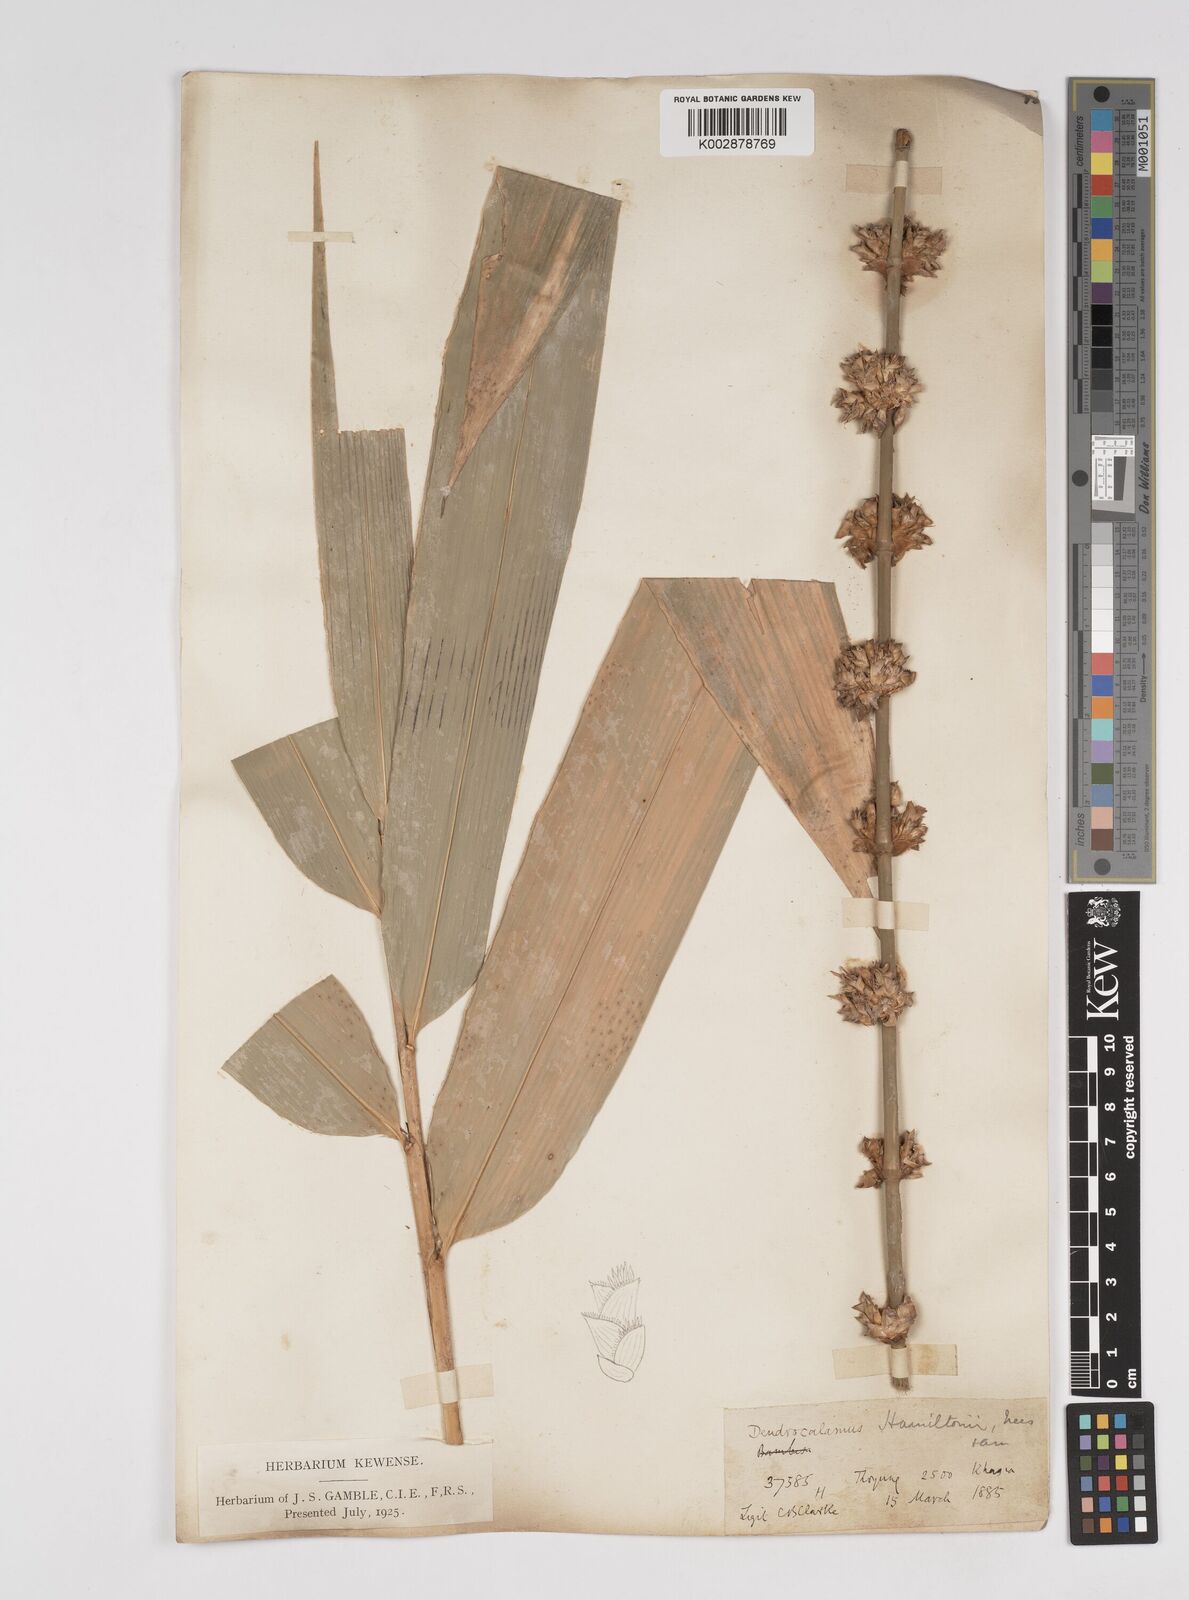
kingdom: Plantae
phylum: Tracheophyta
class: Liliopsida
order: Poales
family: Poaceae
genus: Dendrocalamus
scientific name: Dendrocalamus hamiltonii
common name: Tama bamboo
